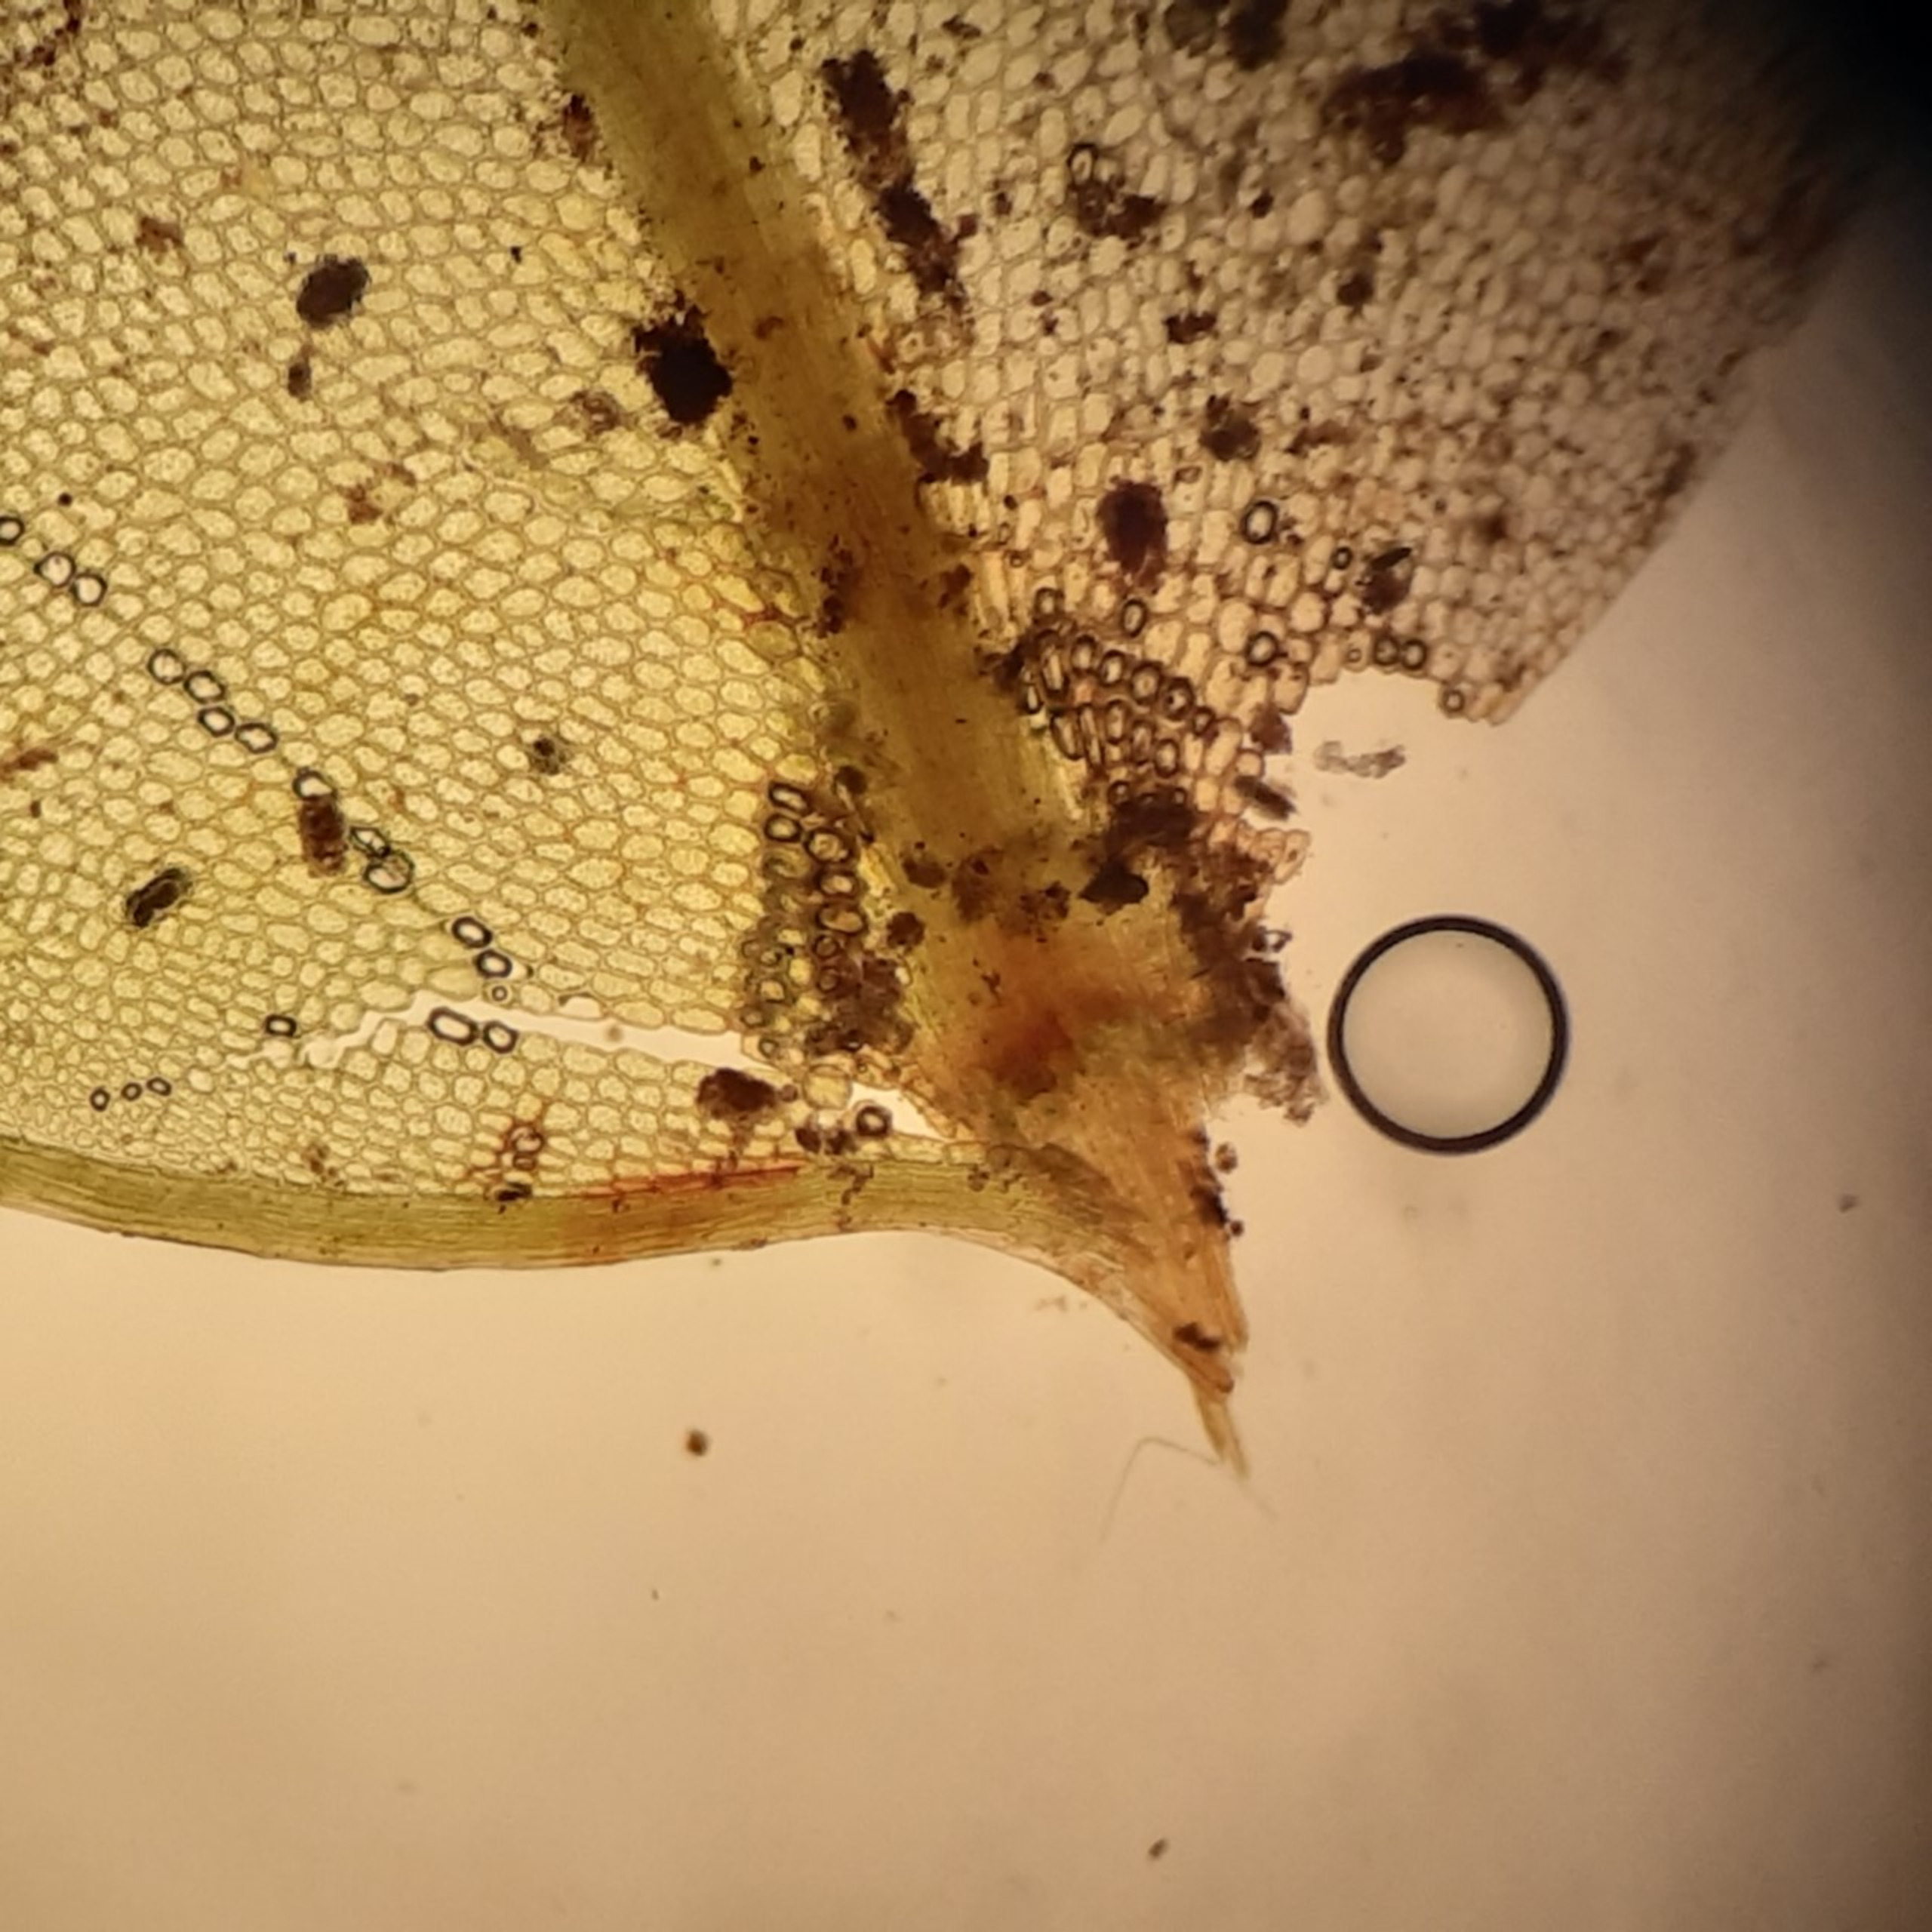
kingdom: Plantae
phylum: Bryophyta
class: Bryopsida
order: Bryales
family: Mniaceae
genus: Rhizomnium
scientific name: Rhizomnium punctatum
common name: Almindelig bredblad
